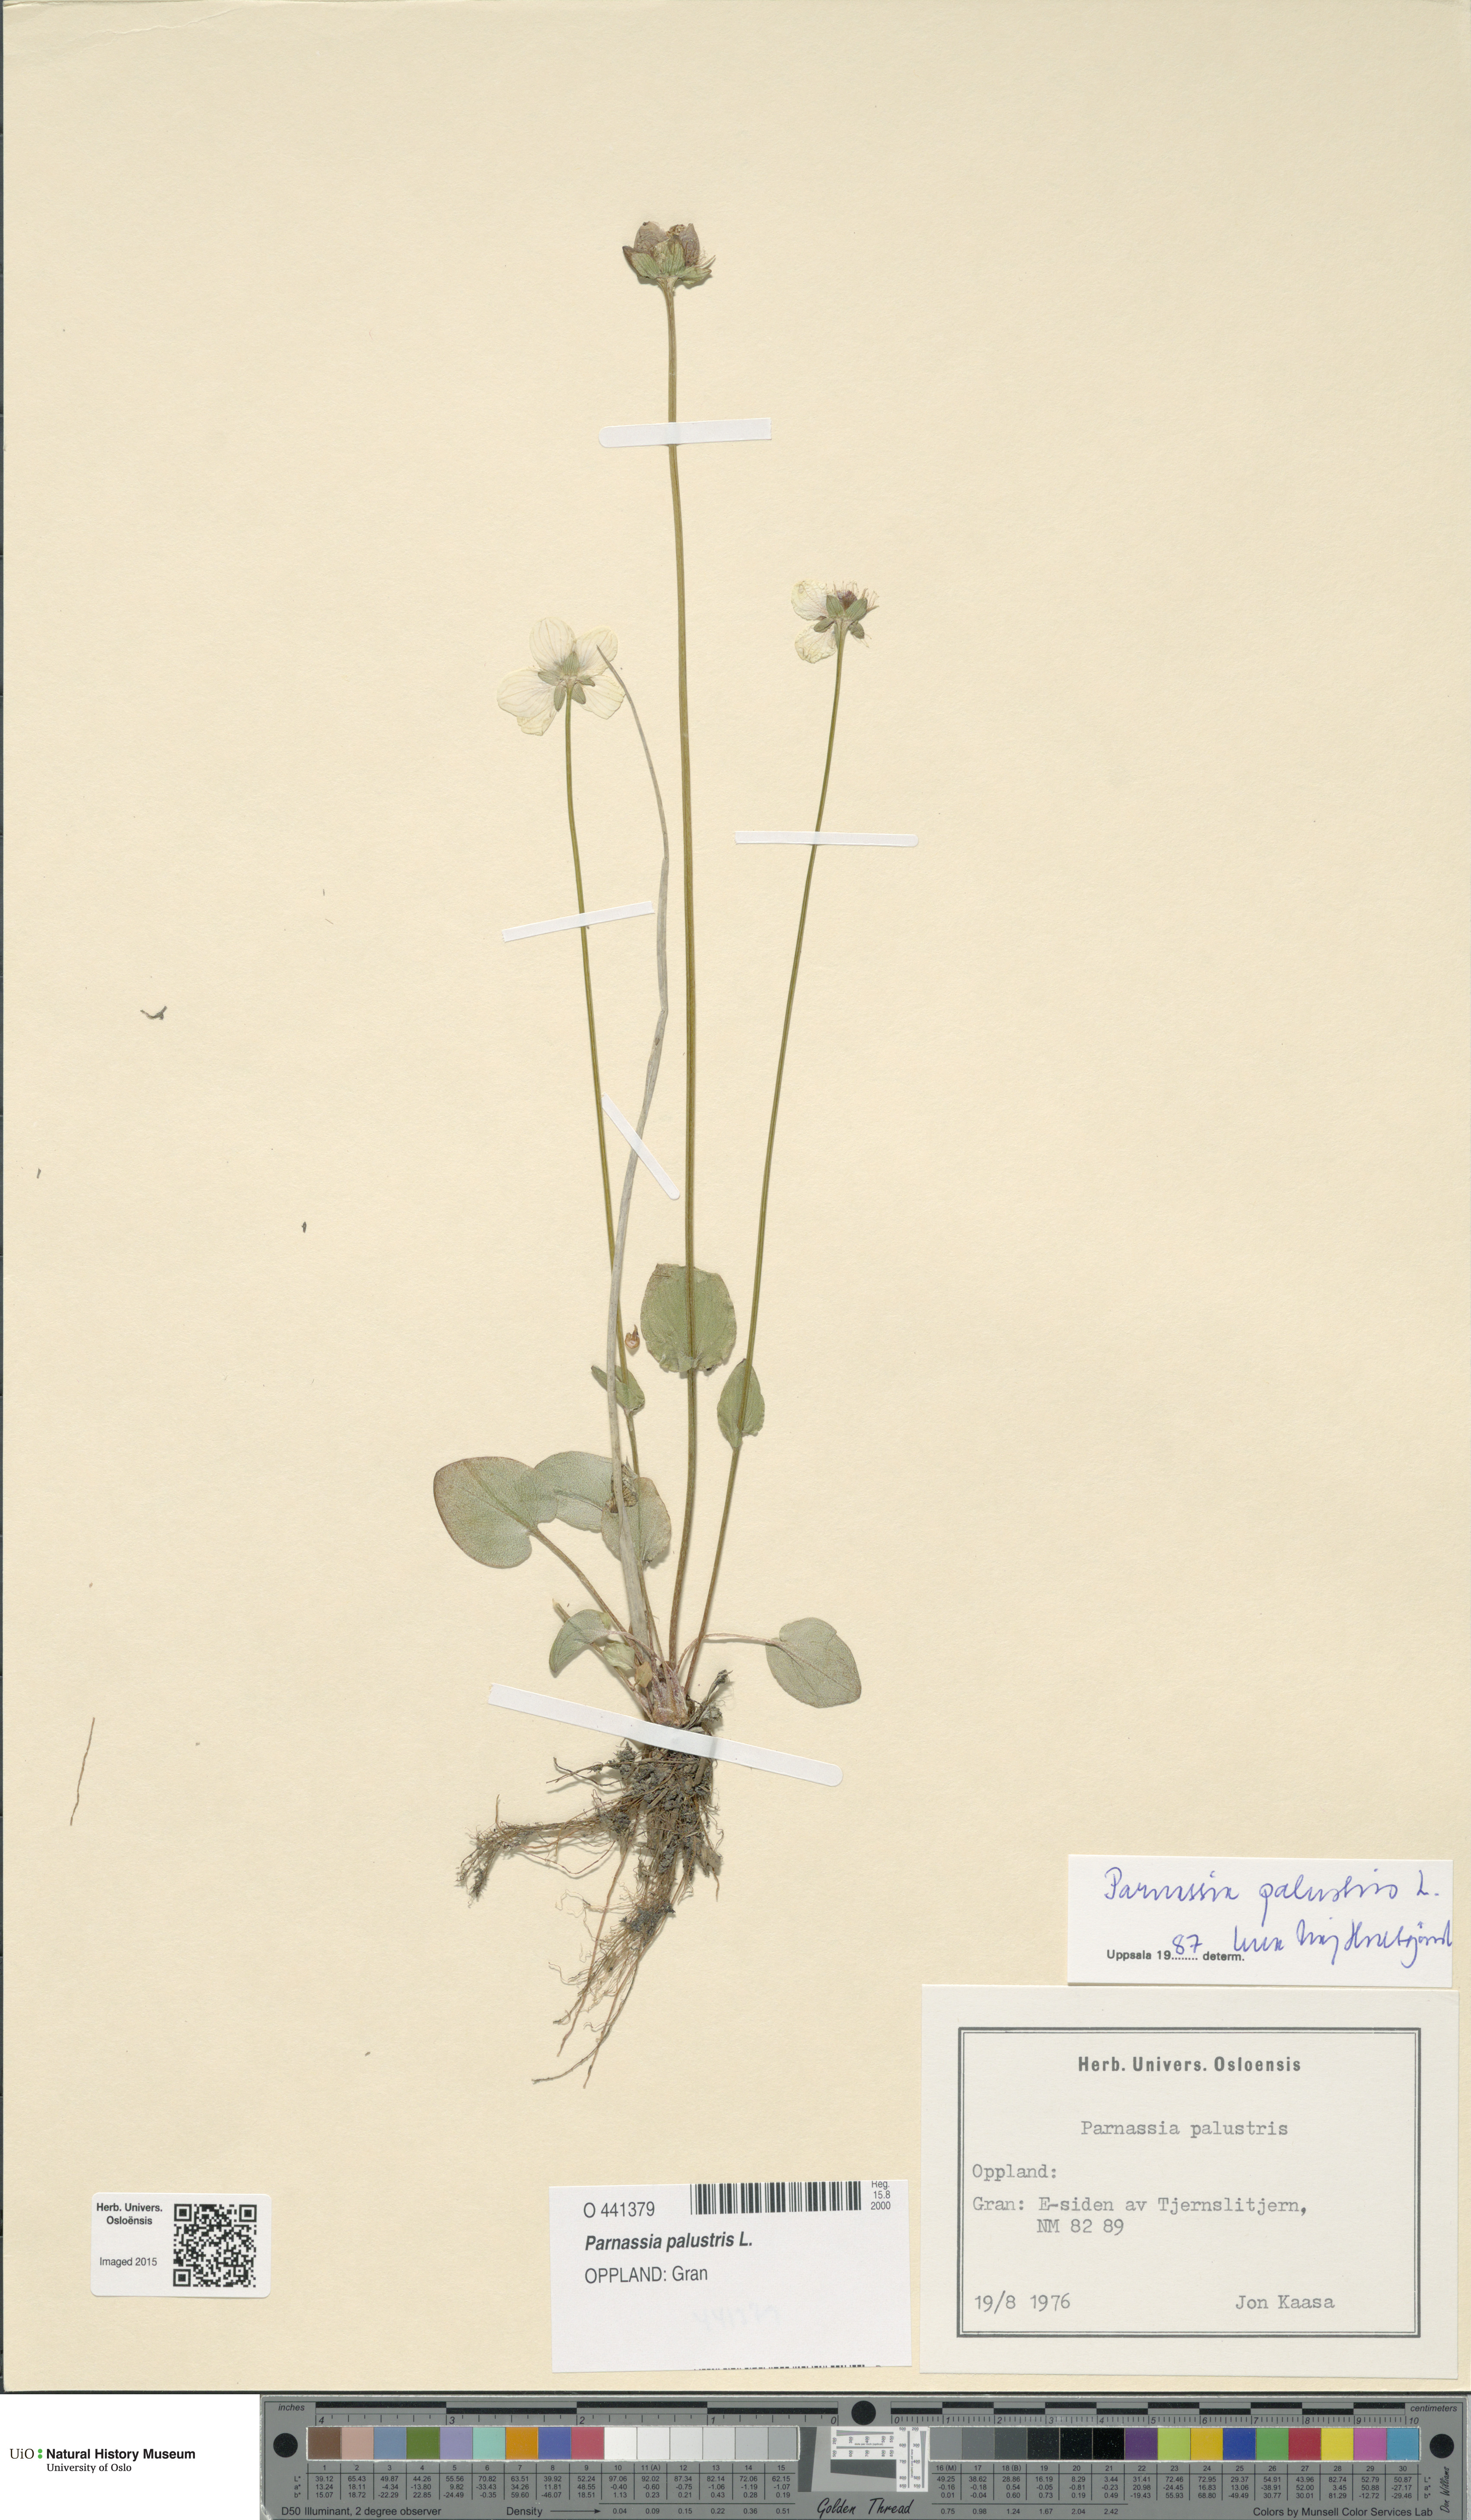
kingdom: Plantae
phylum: Tracheophyta
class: Magnoliopsida
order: Celastrales
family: Parnassiaceae
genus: Parnassia
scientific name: Parnassia palustris
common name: Grass-of-parnassus
